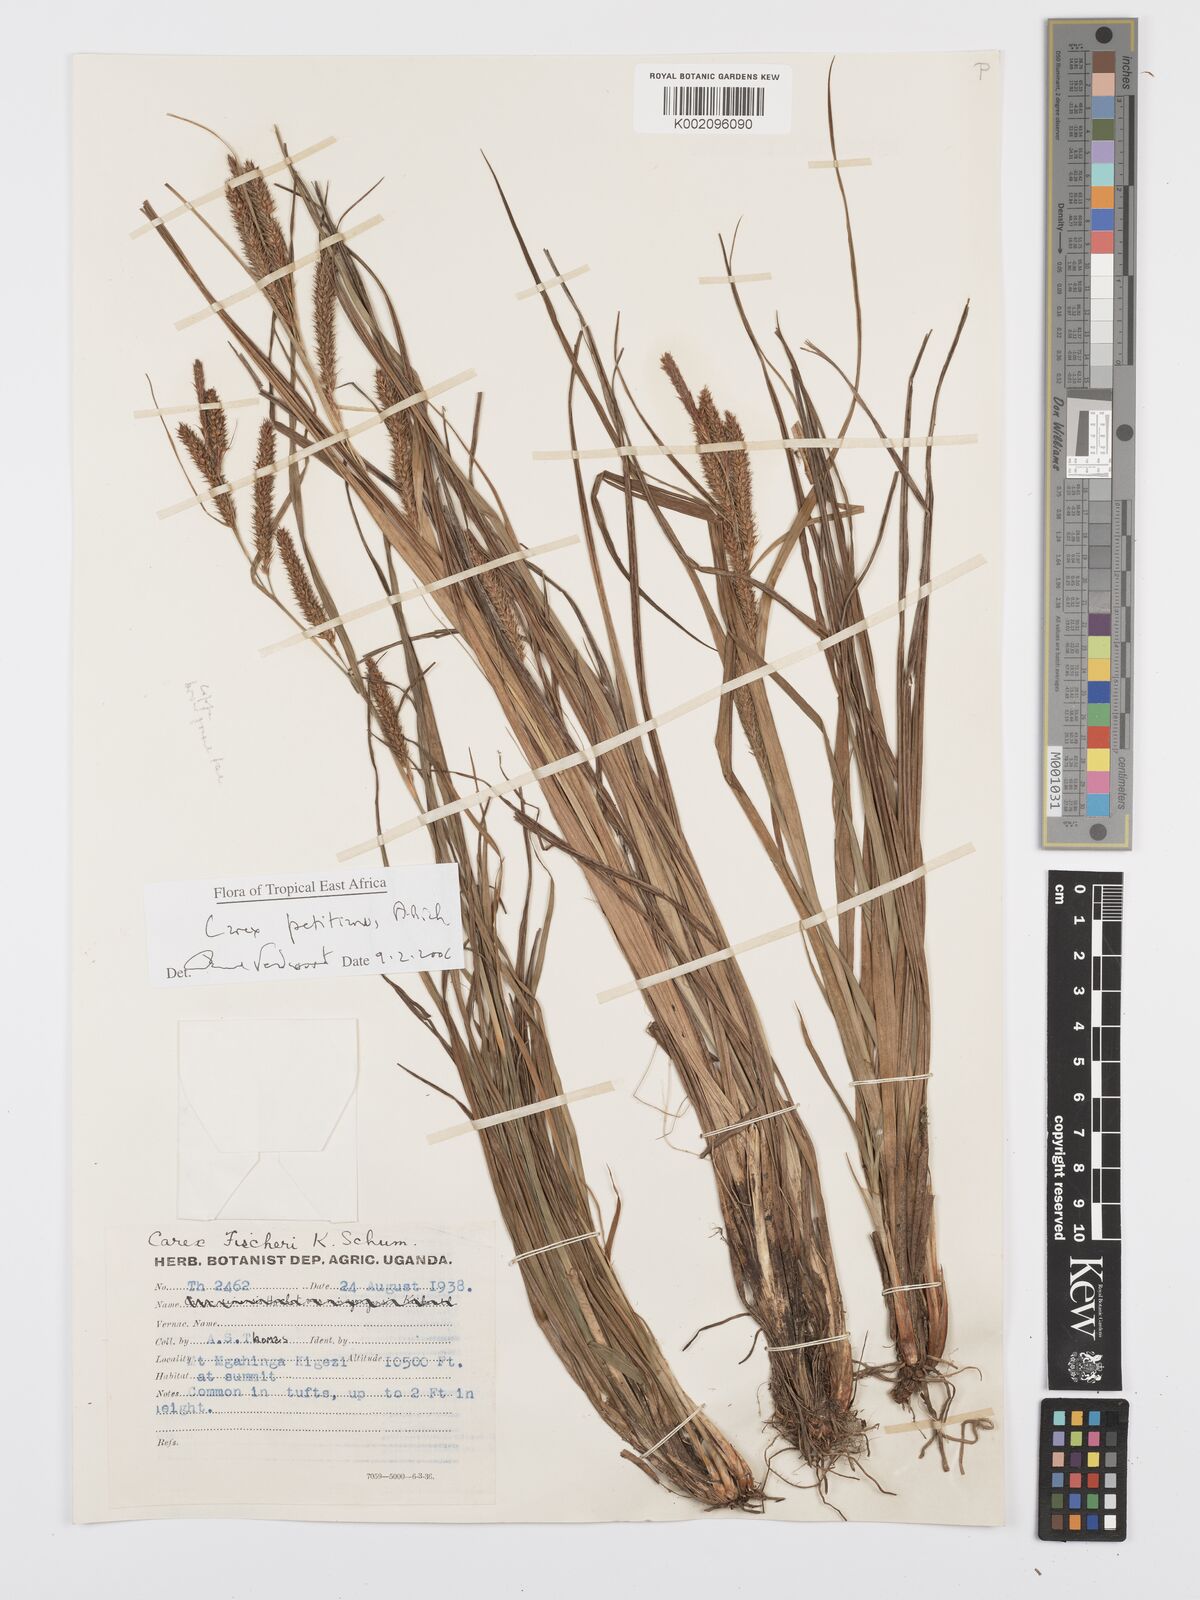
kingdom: Plantae
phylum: Tracheophyta
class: Liliopsida
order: Poales
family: Cyperaceae
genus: Carex
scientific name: Carex fischeri
